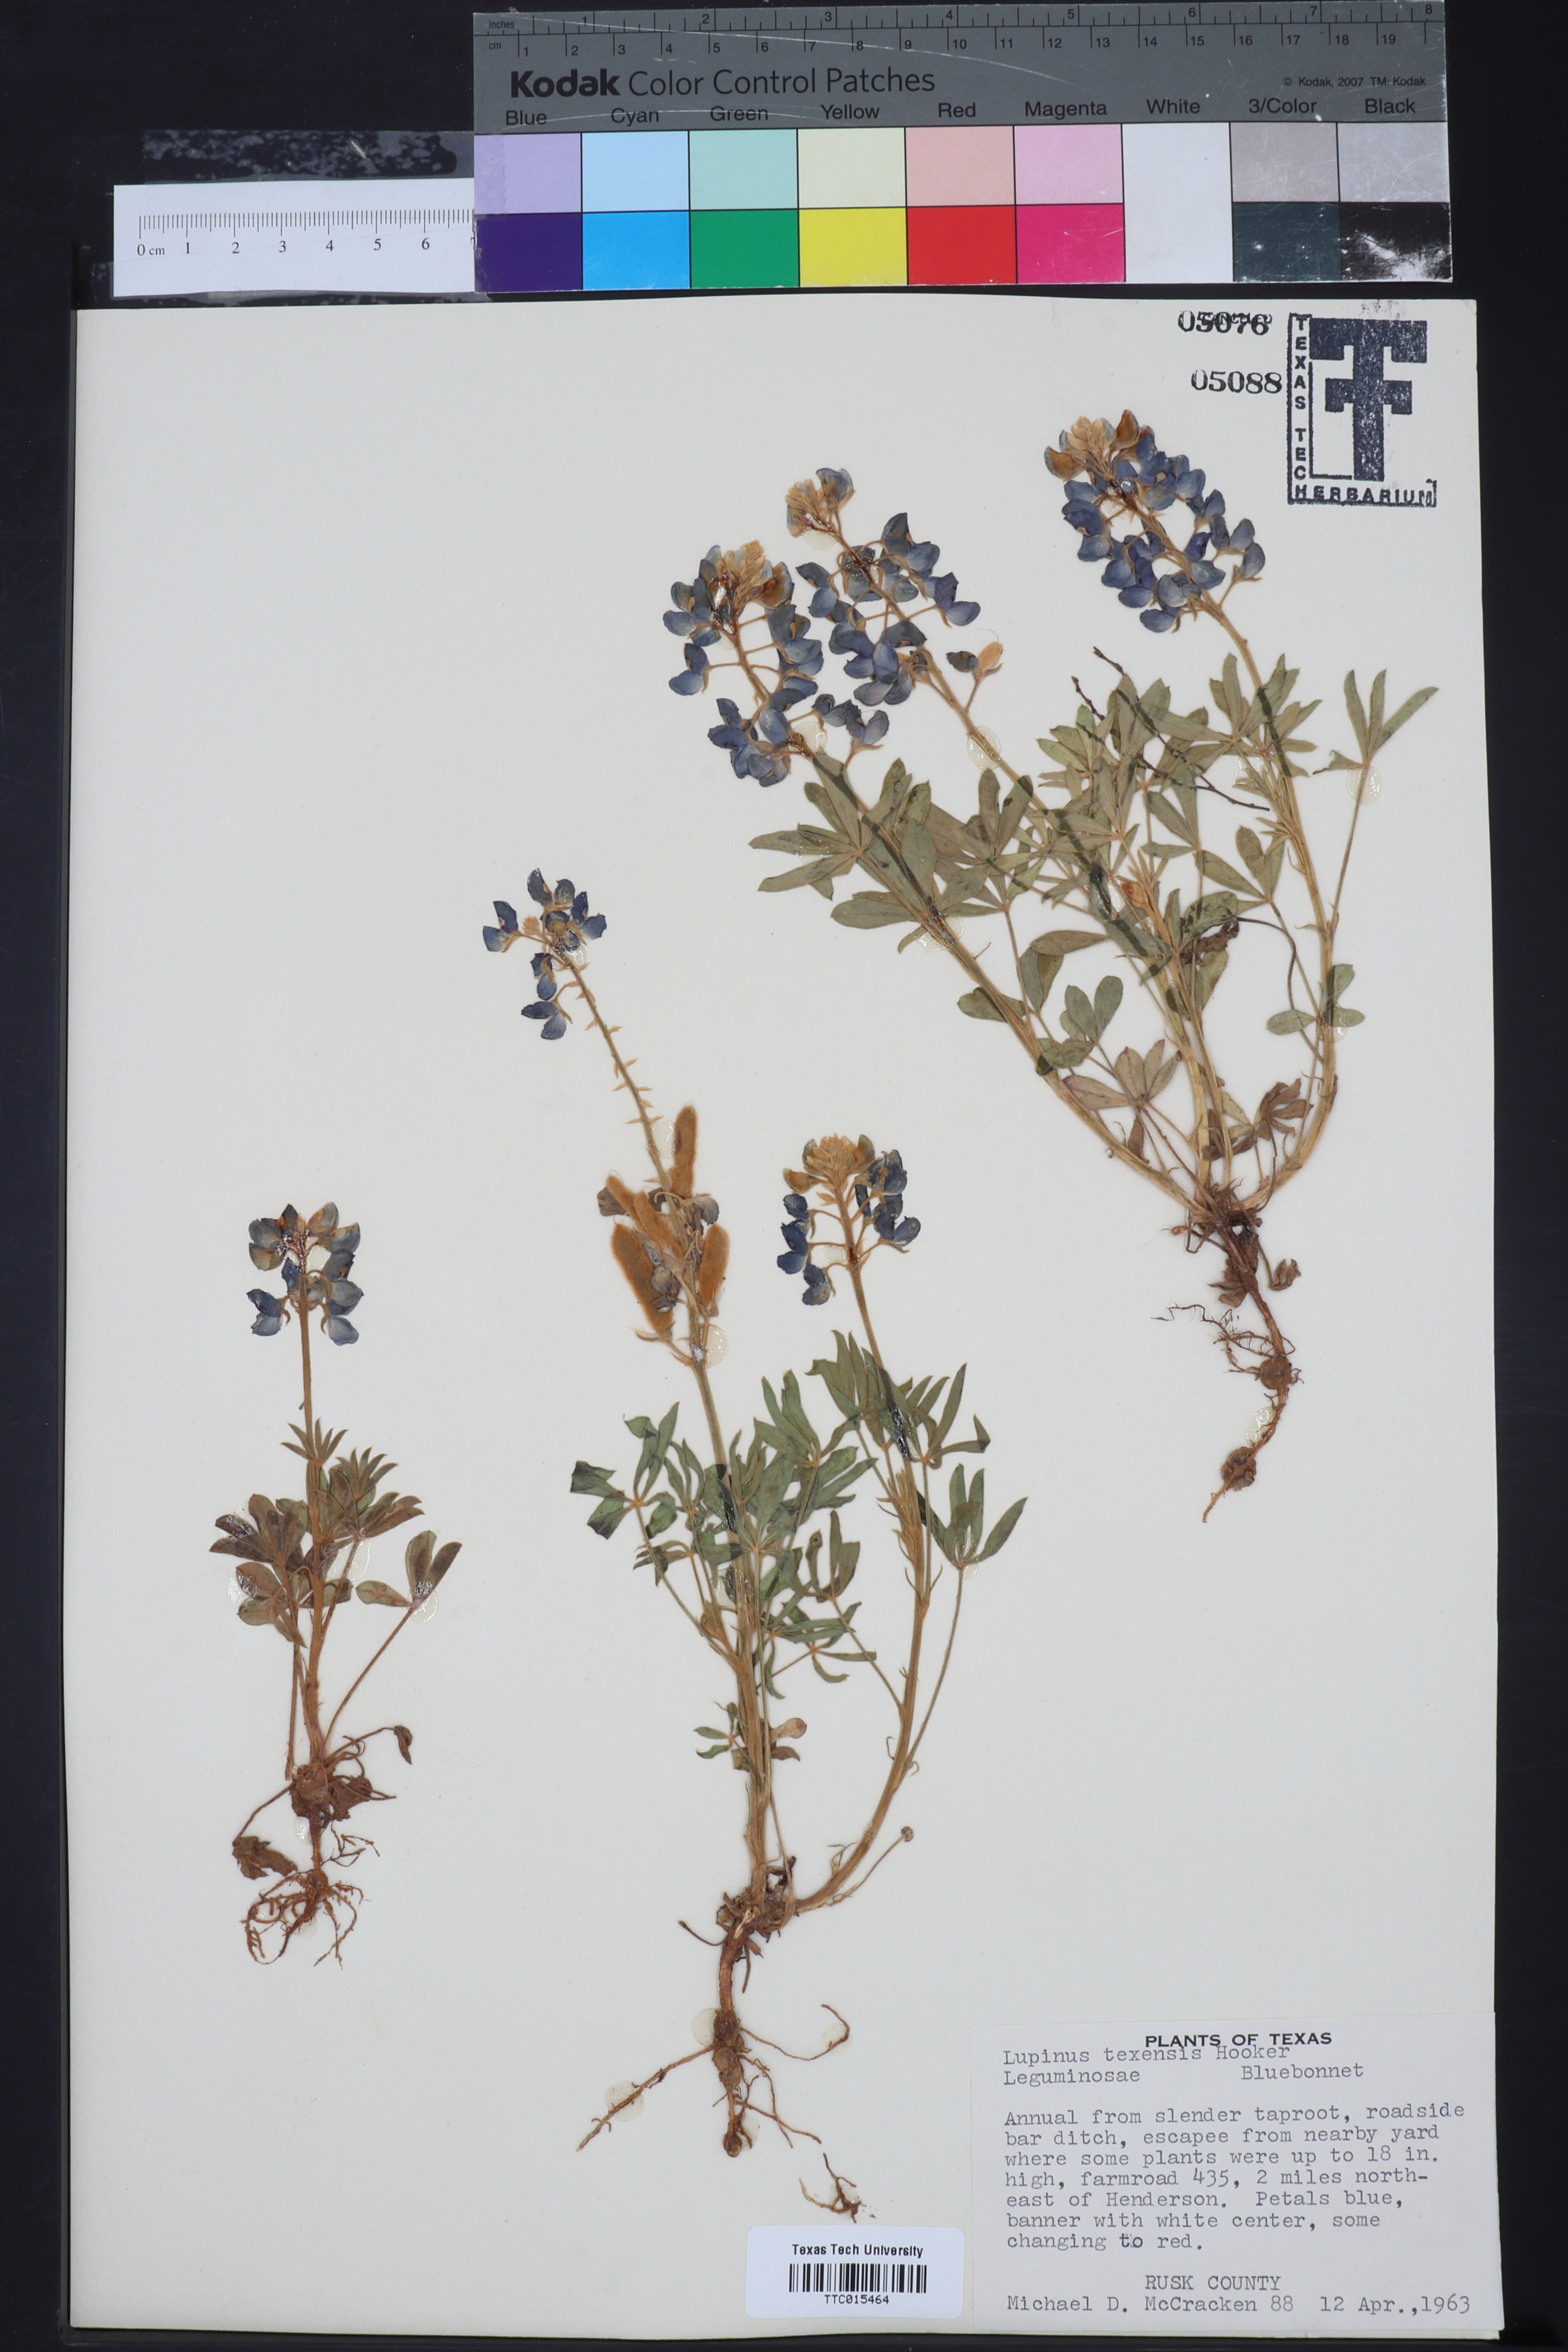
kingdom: Plantae
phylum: Tracheophyta
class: Magnoliopsida
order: Fabales
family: Fabaceae
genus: Lupinus
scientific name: Lupinus texensis
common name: Texas bluebonnet
